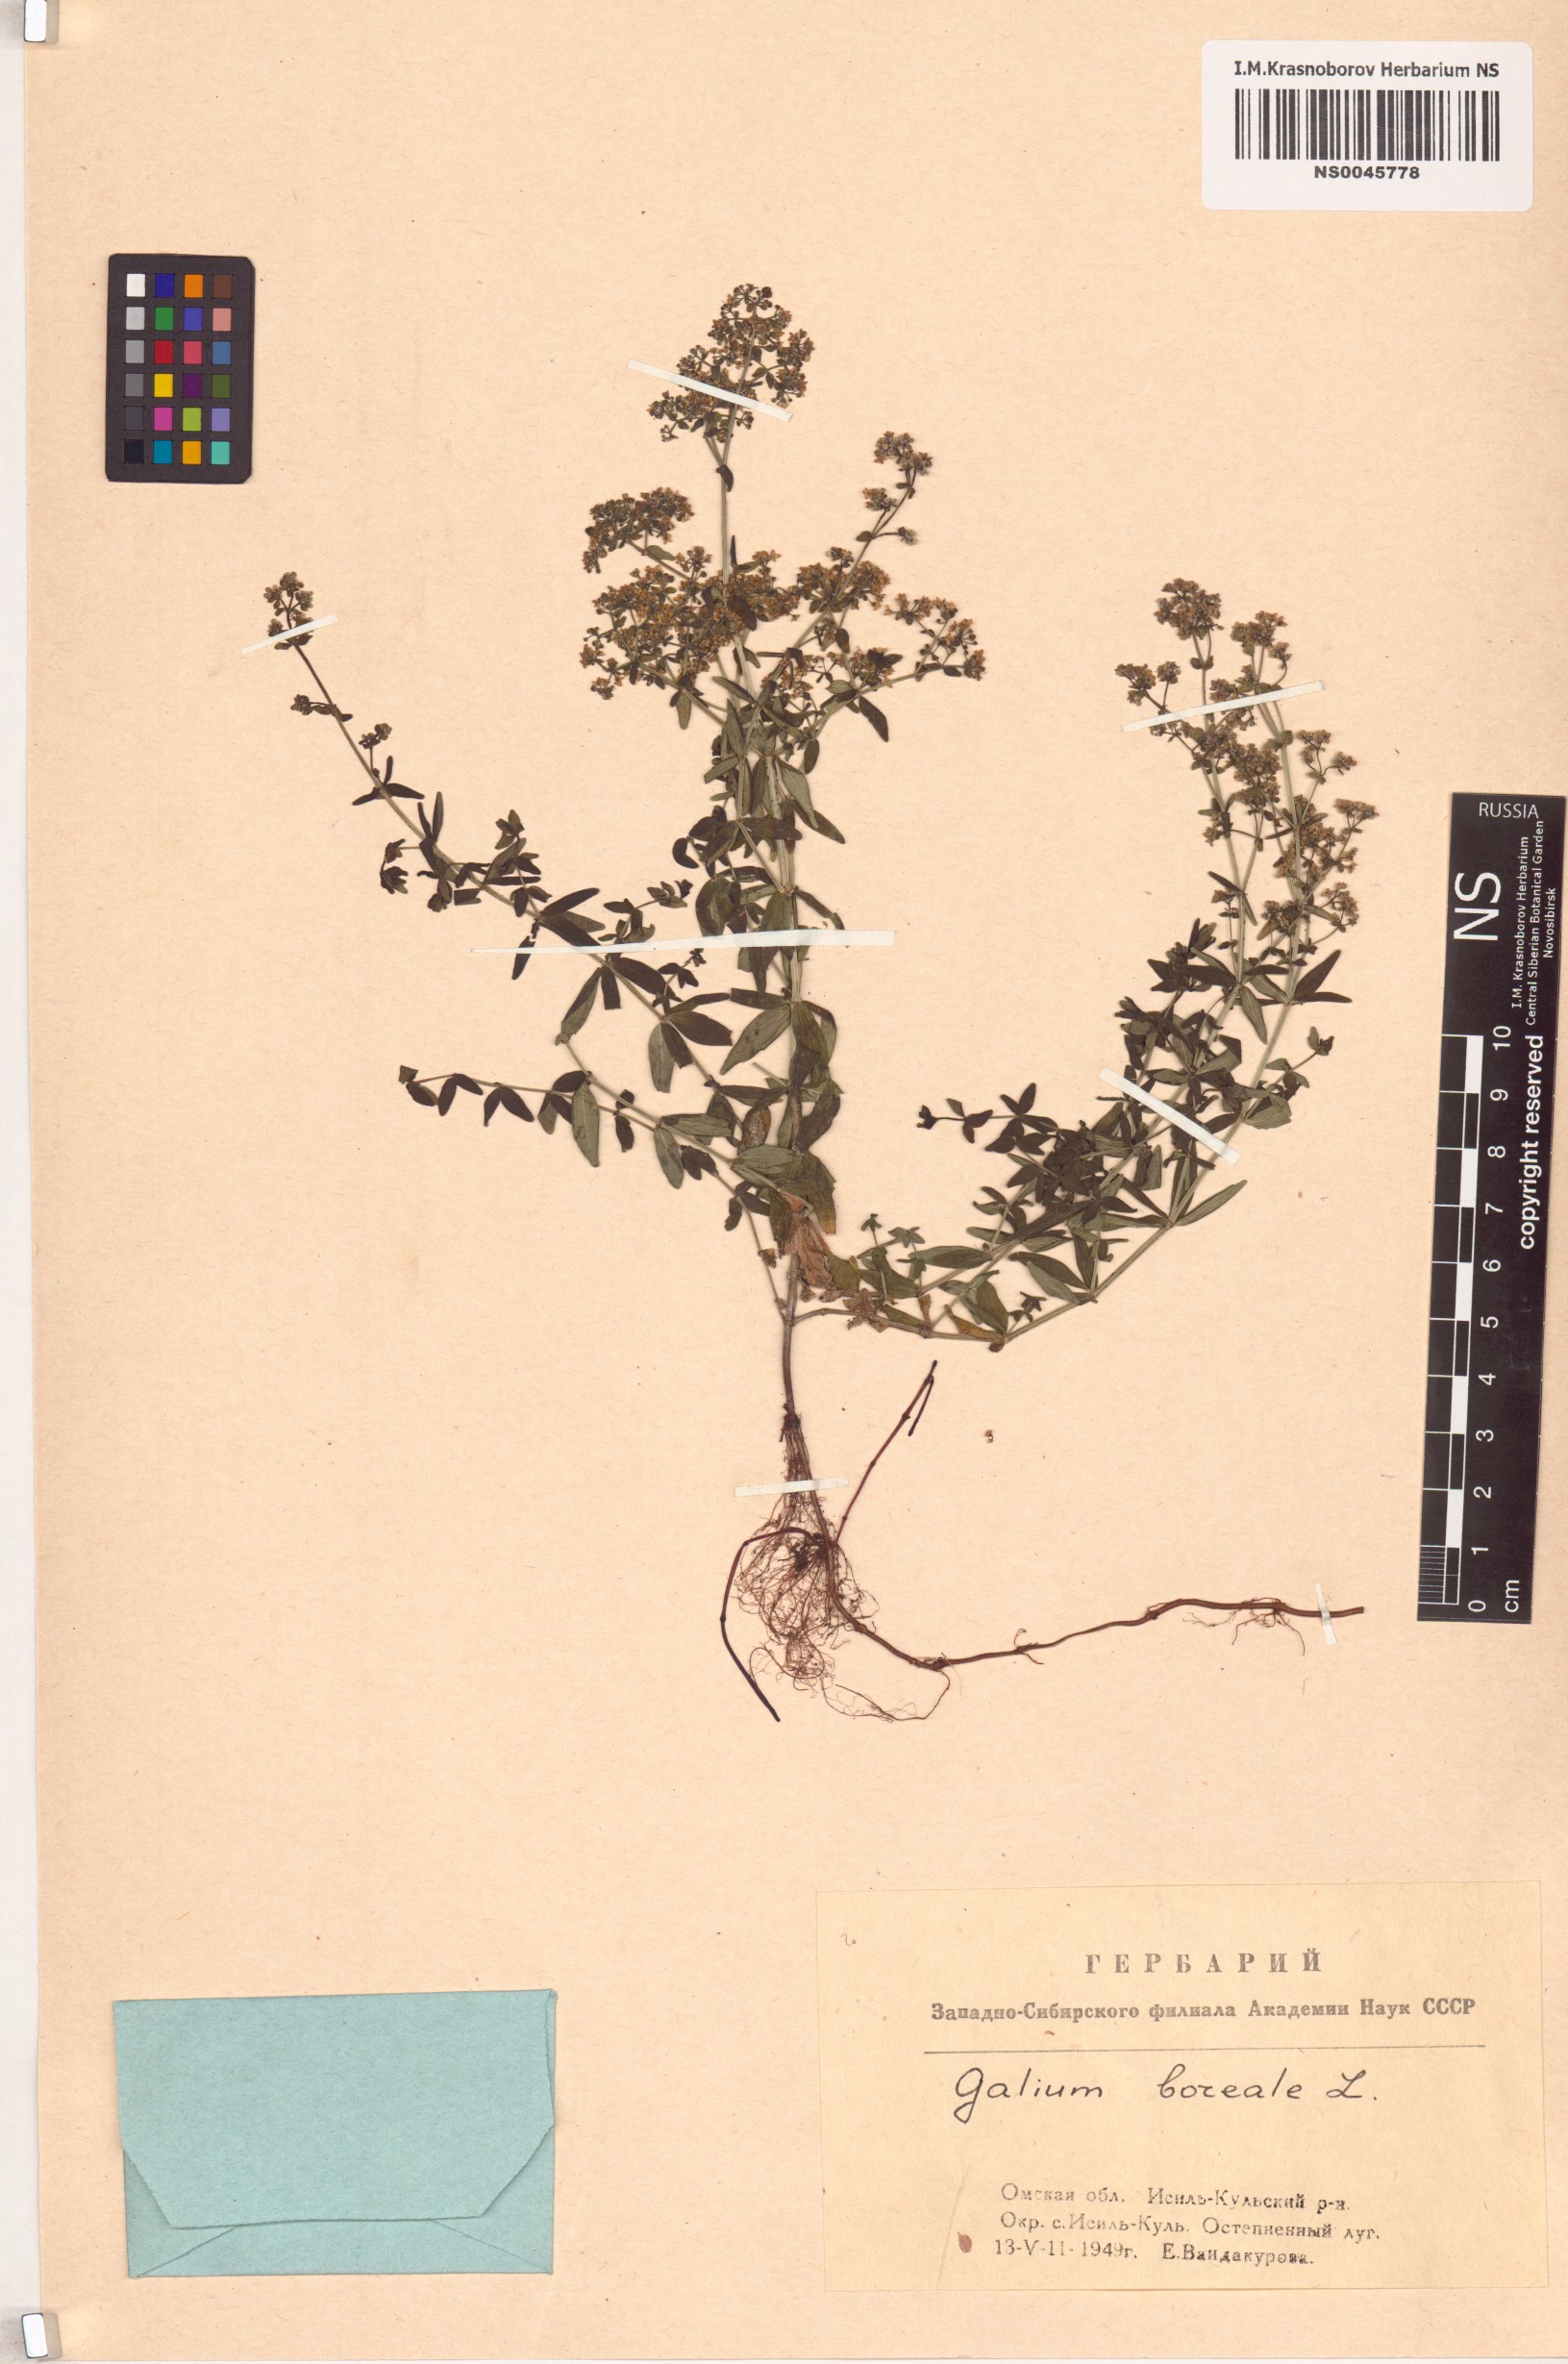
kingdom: Plantae
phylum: Tracheophyta
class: Magnoliopsida
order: Gentianales
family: Rubiaceae
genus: Galium
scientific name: Galium boreale
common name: Northern bedstraw
